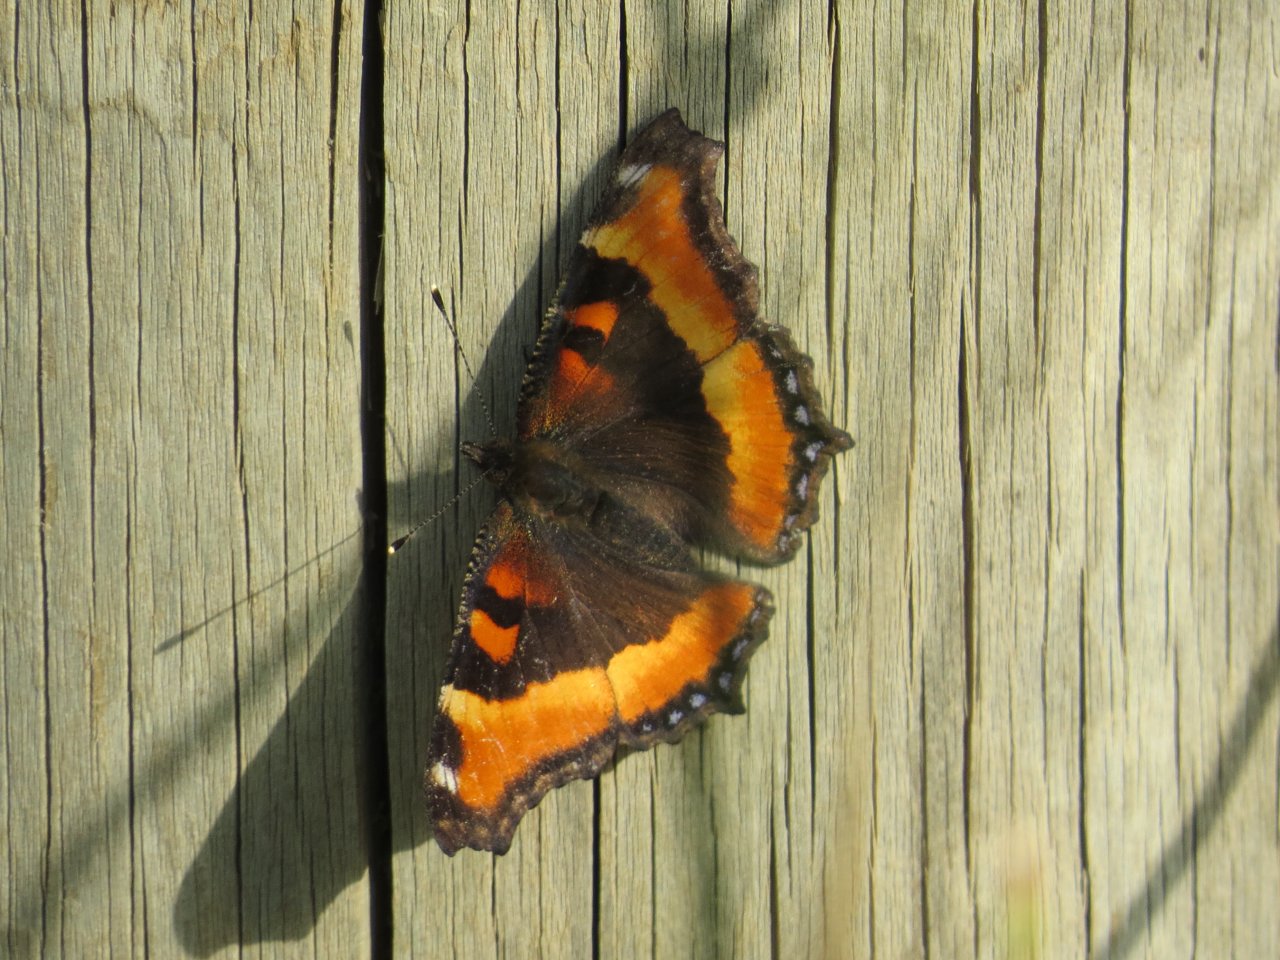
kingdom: Animalia
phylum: Arthropoda
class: Insecta
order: Lepidoptera
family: Nymphalidae
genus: Aglais
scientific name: Aglais milberti
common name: Milbert's Tortoiseshell
